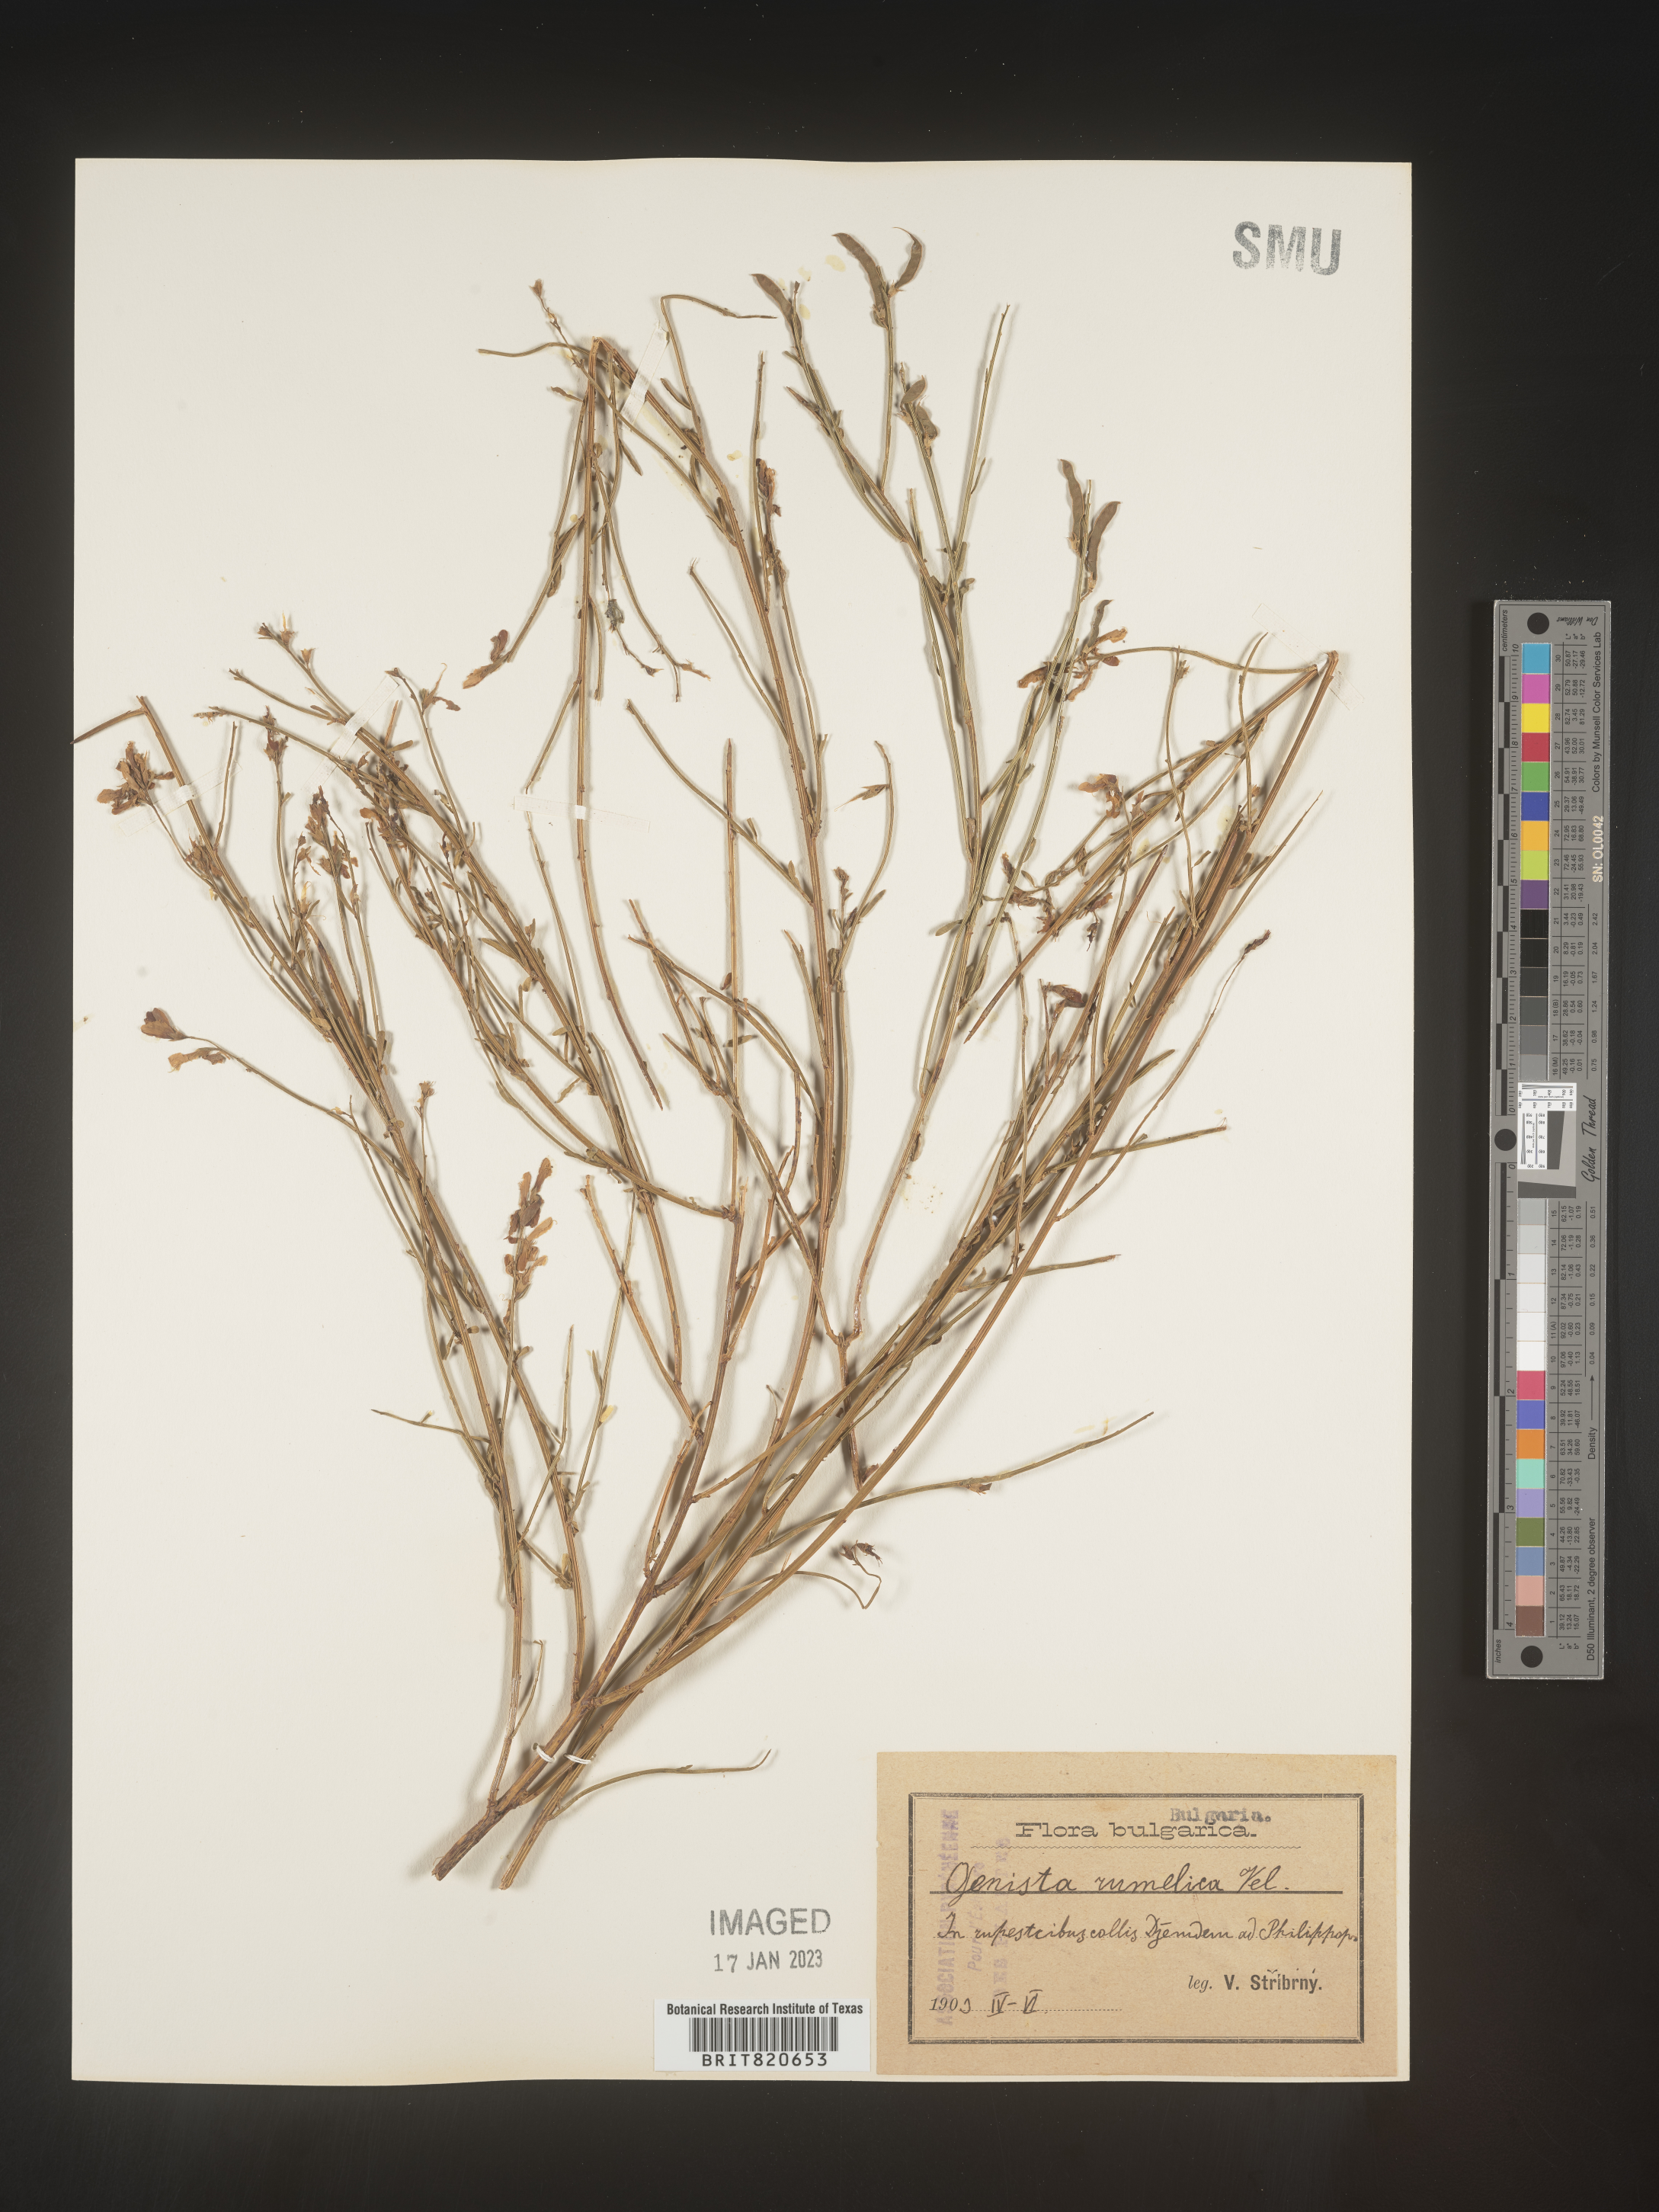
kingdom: Plantae
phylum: Tracheophyta
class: Magnoliopsida
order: Fabales
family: Fabaceae
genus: Genista
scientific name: Genista
